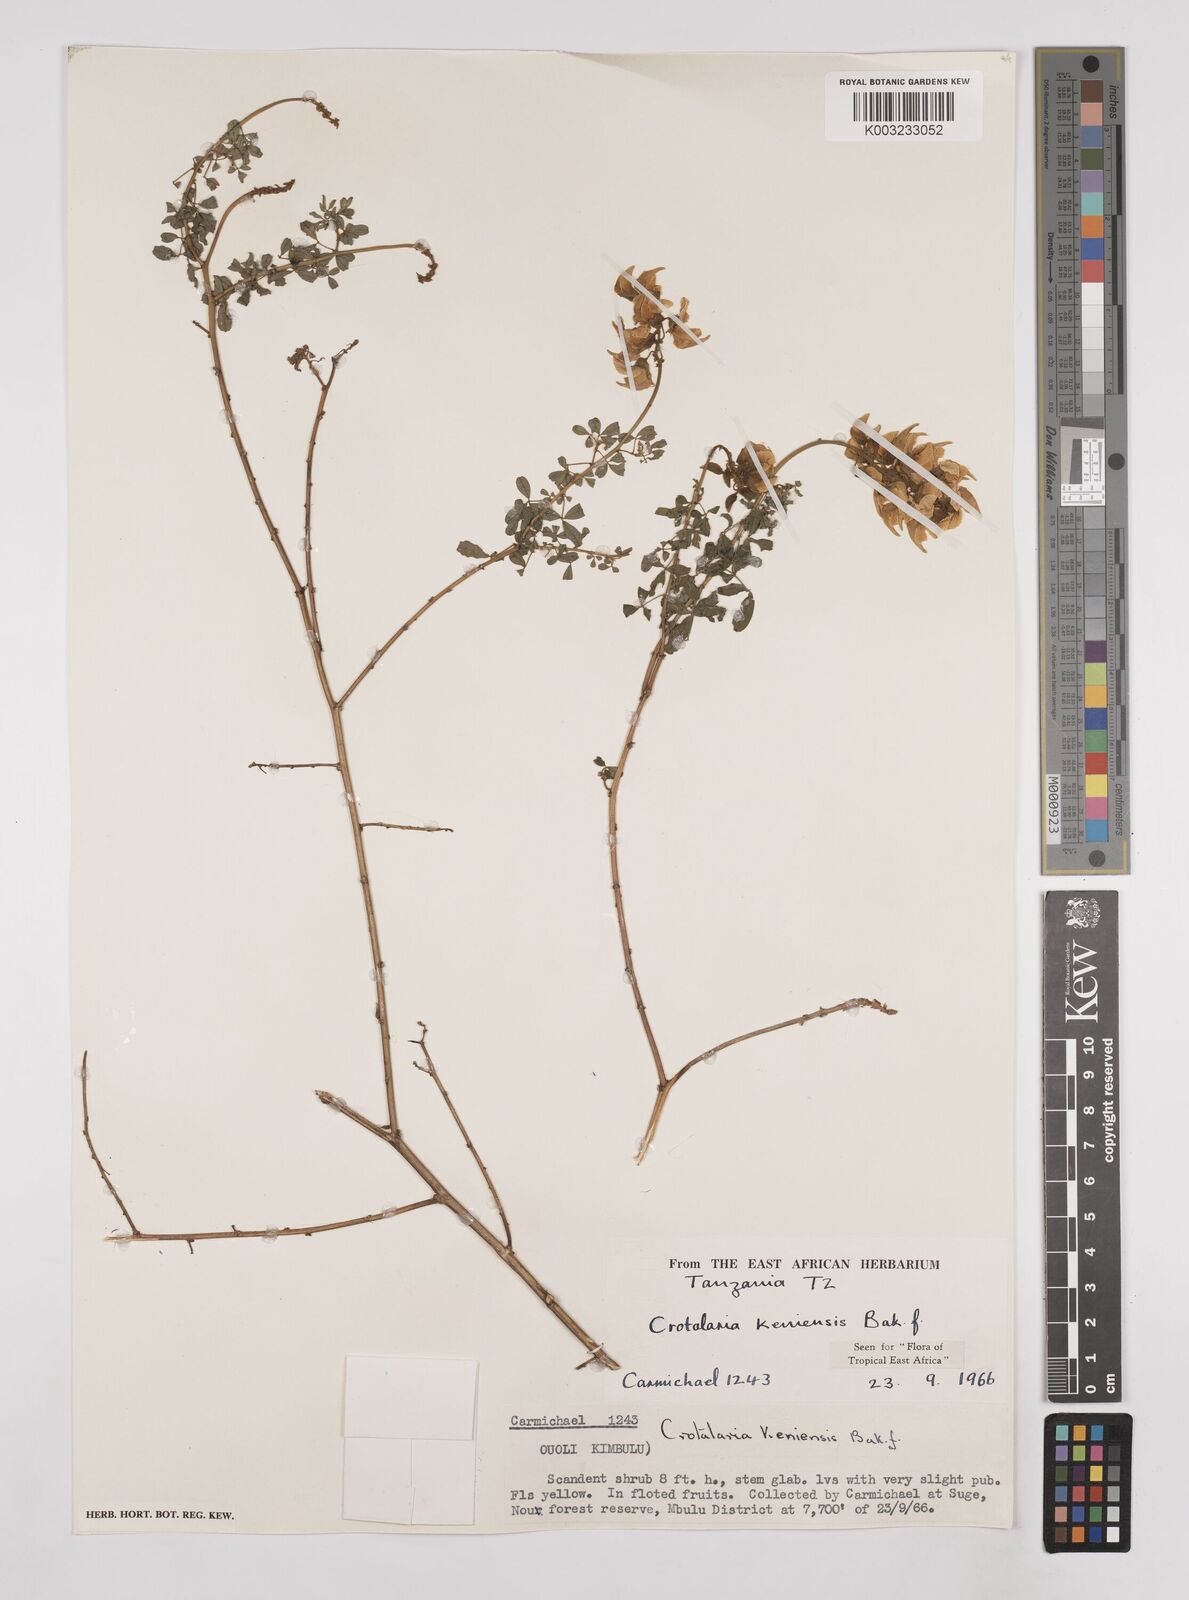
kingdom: Plantae
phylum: Tracheophyta
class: Magnoliopsida
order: Fabales
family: Fabaceae
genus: Crotalaria
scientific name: Crotalaria keniensis
